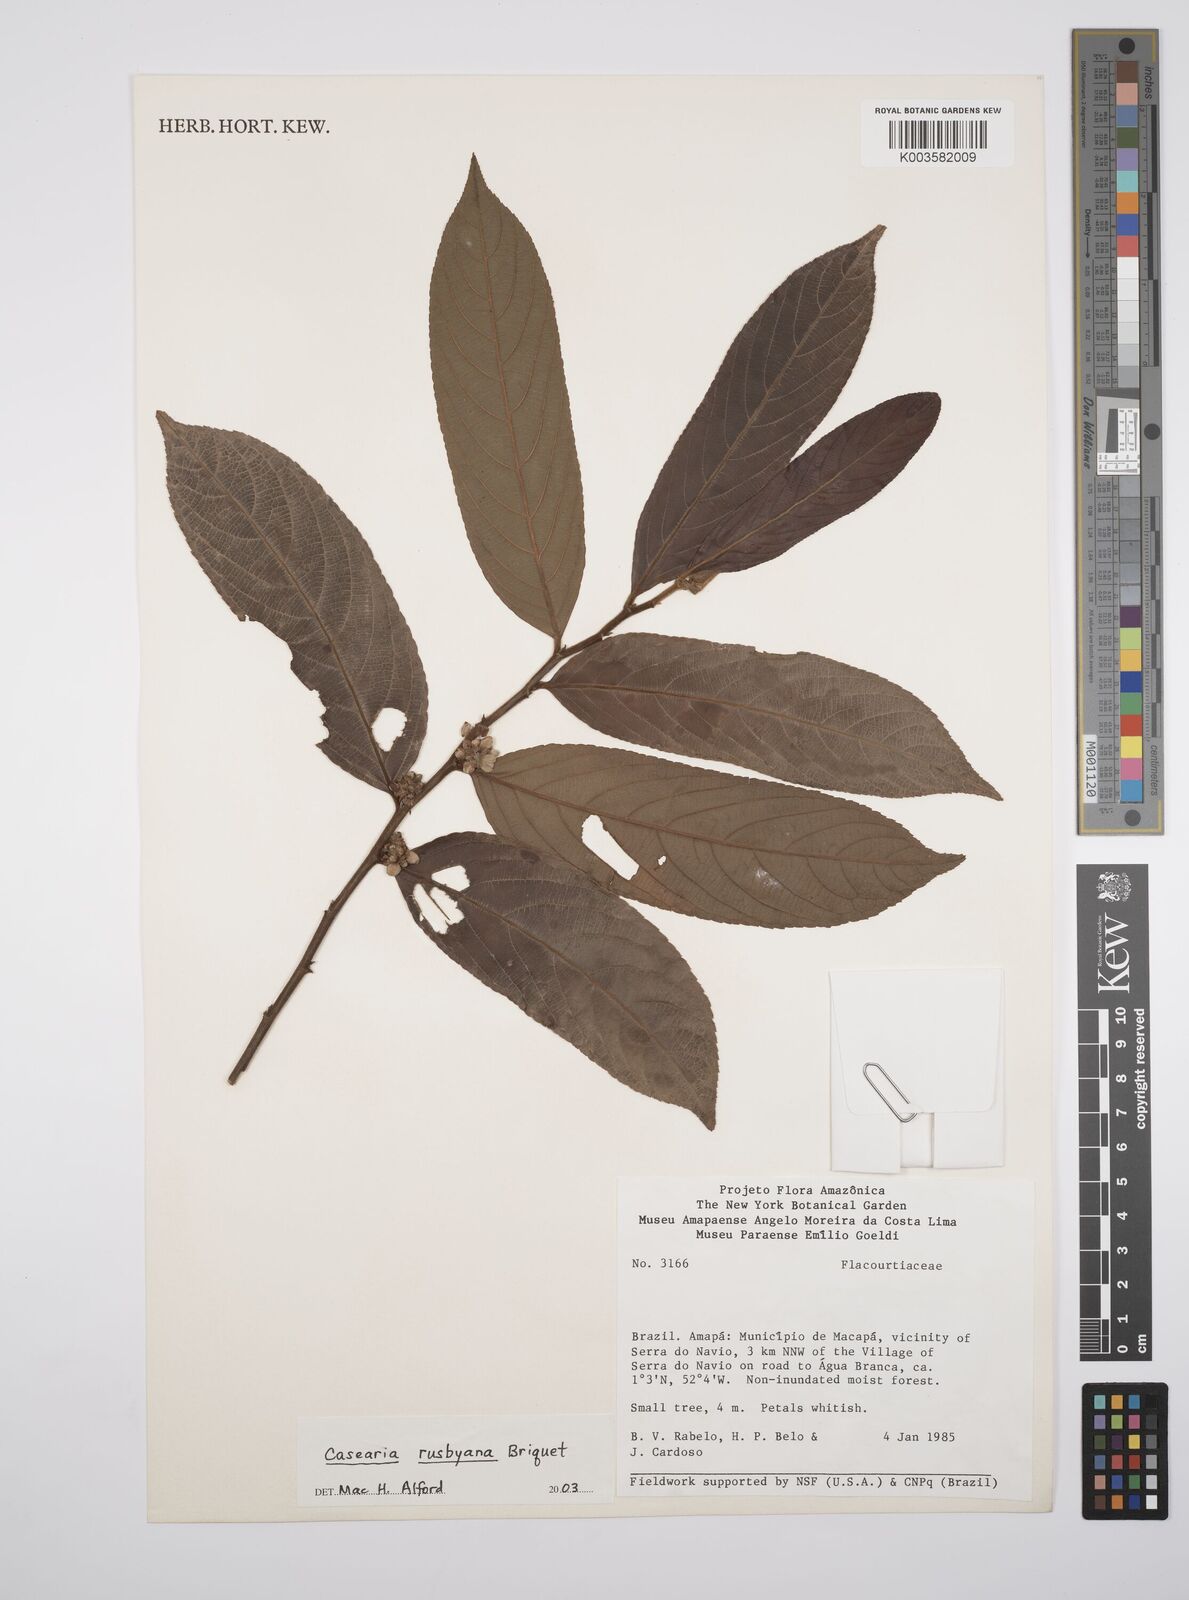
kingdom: Plantae
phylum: Tracheophyta
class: Magnoliopsida
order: Malpighiales
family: Salicaceae
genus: Casearia
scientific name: Casearia rusbyana
